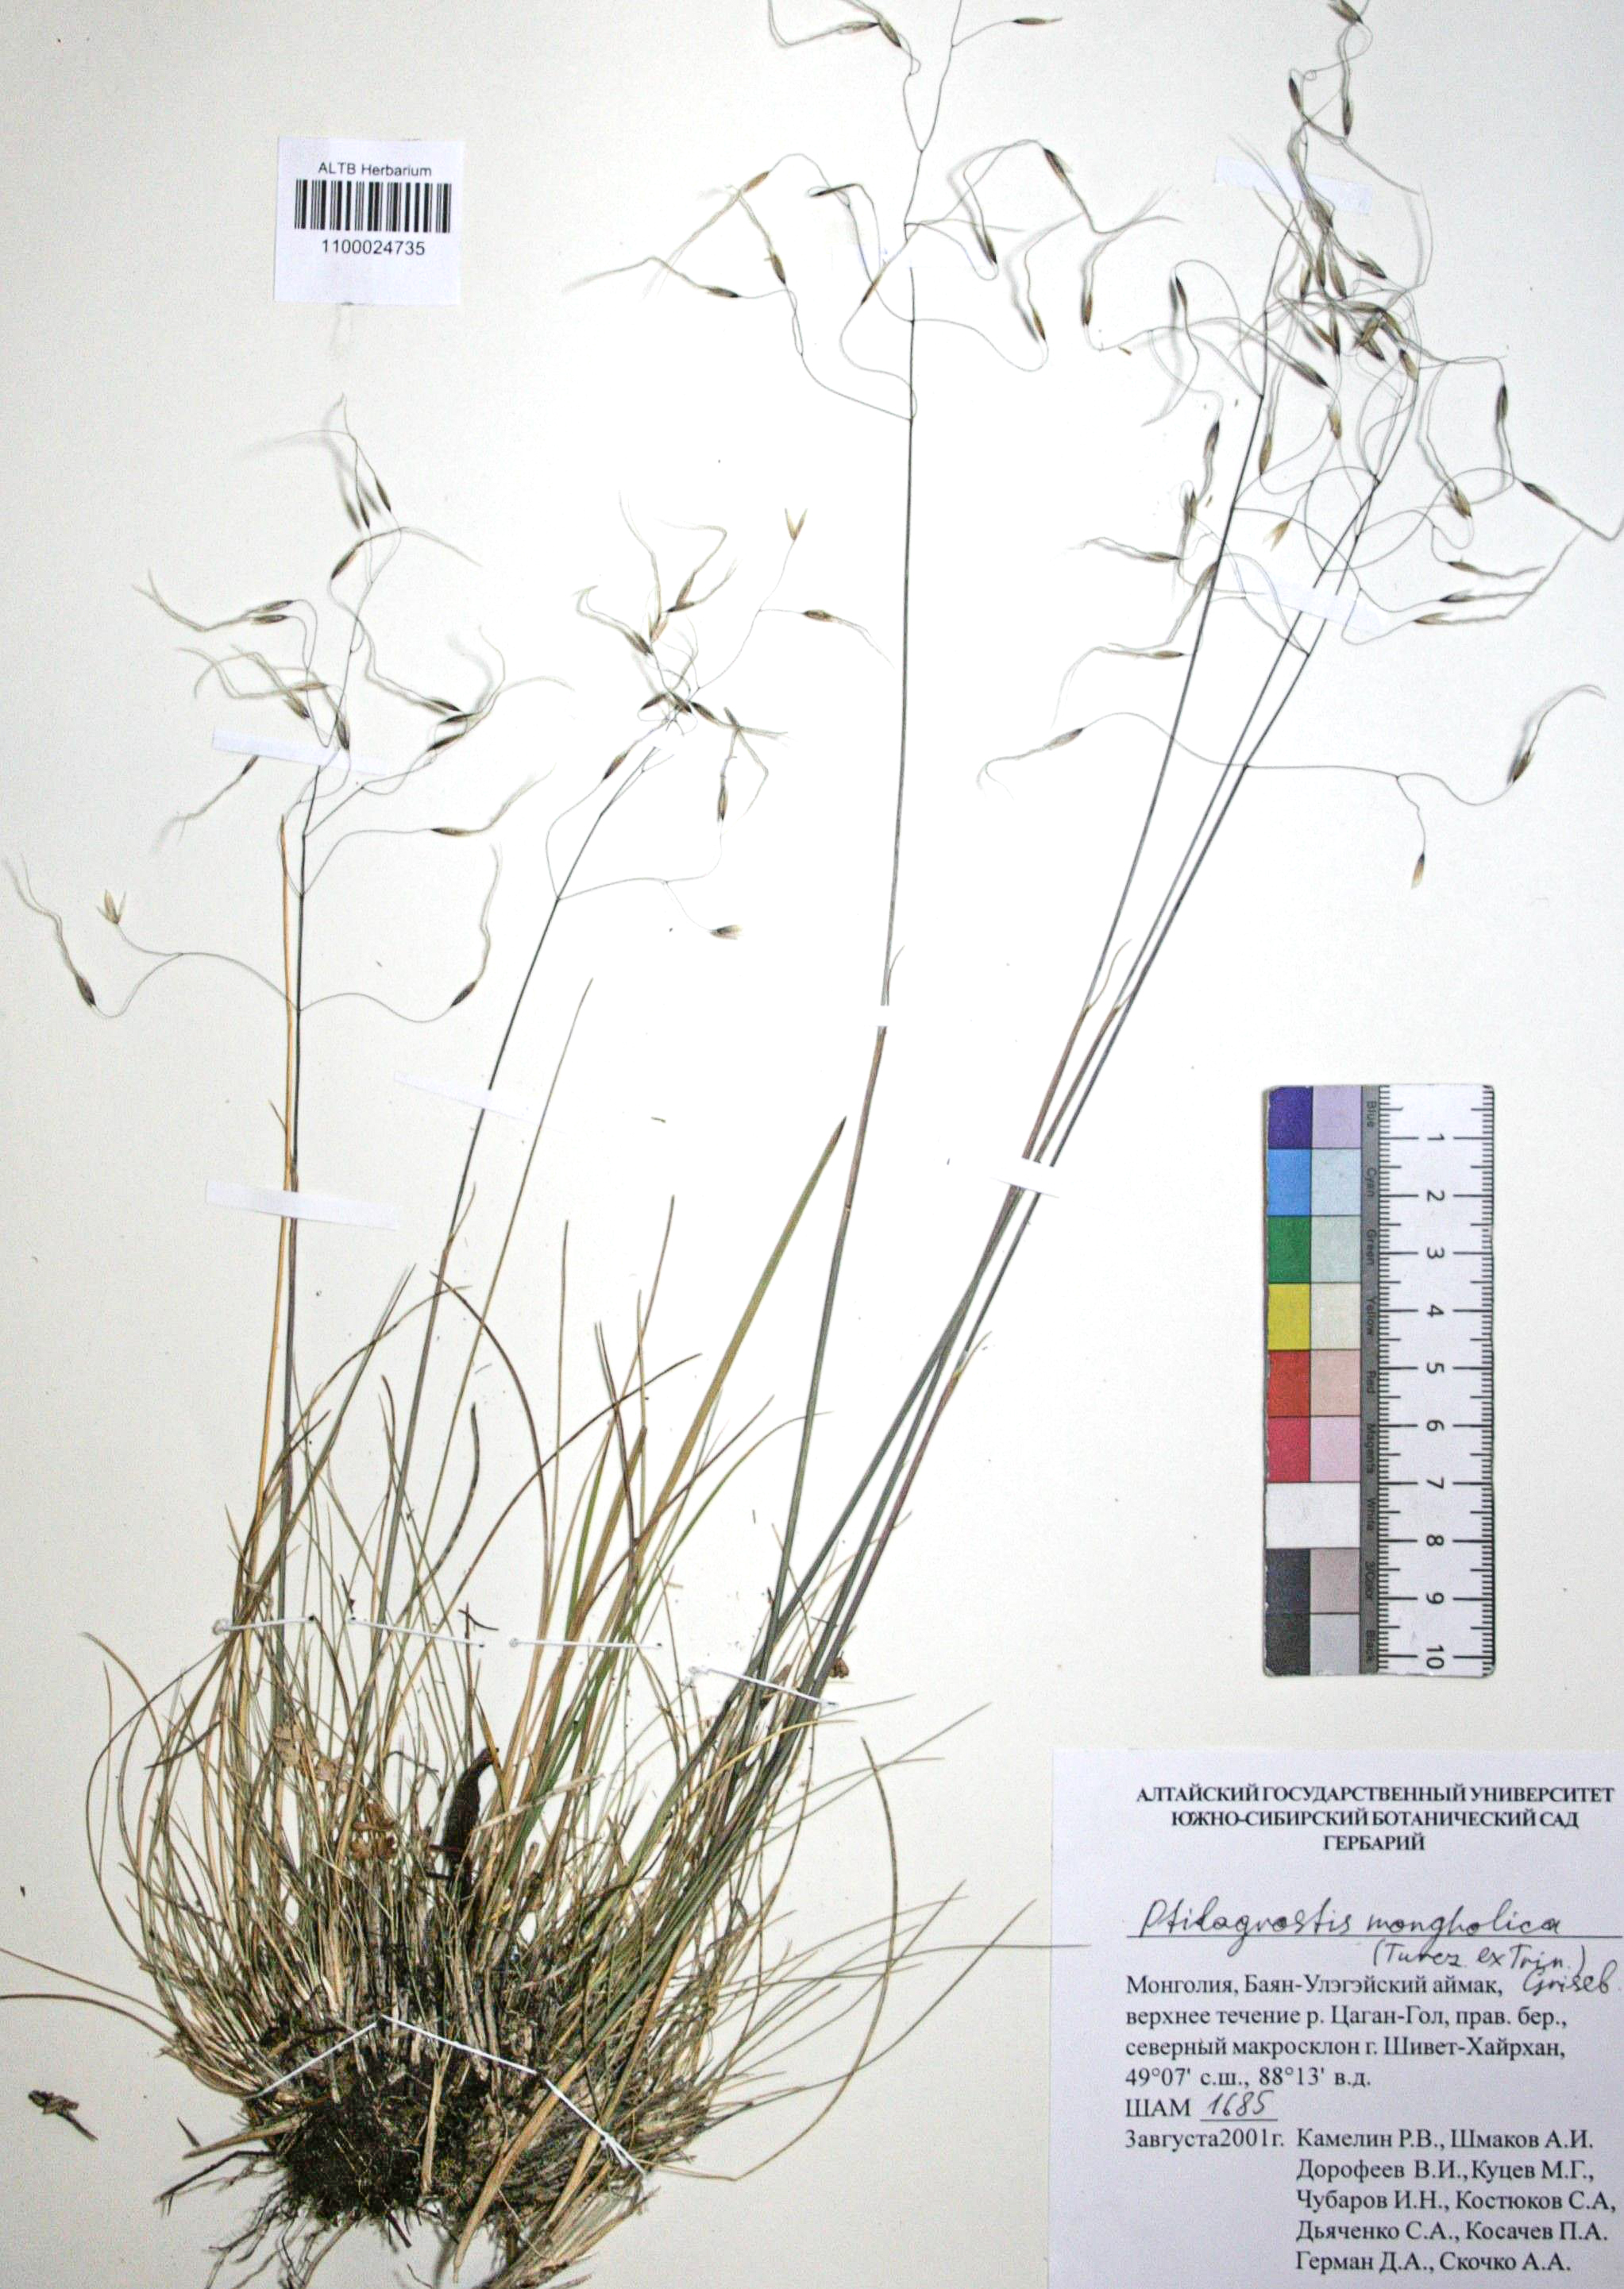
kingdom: Plantae
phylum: Tracheophyta
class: Liliopsida
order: Poales
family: Poaceae
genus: Ptilagrostis
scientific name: Ptilagrostis mongholica
